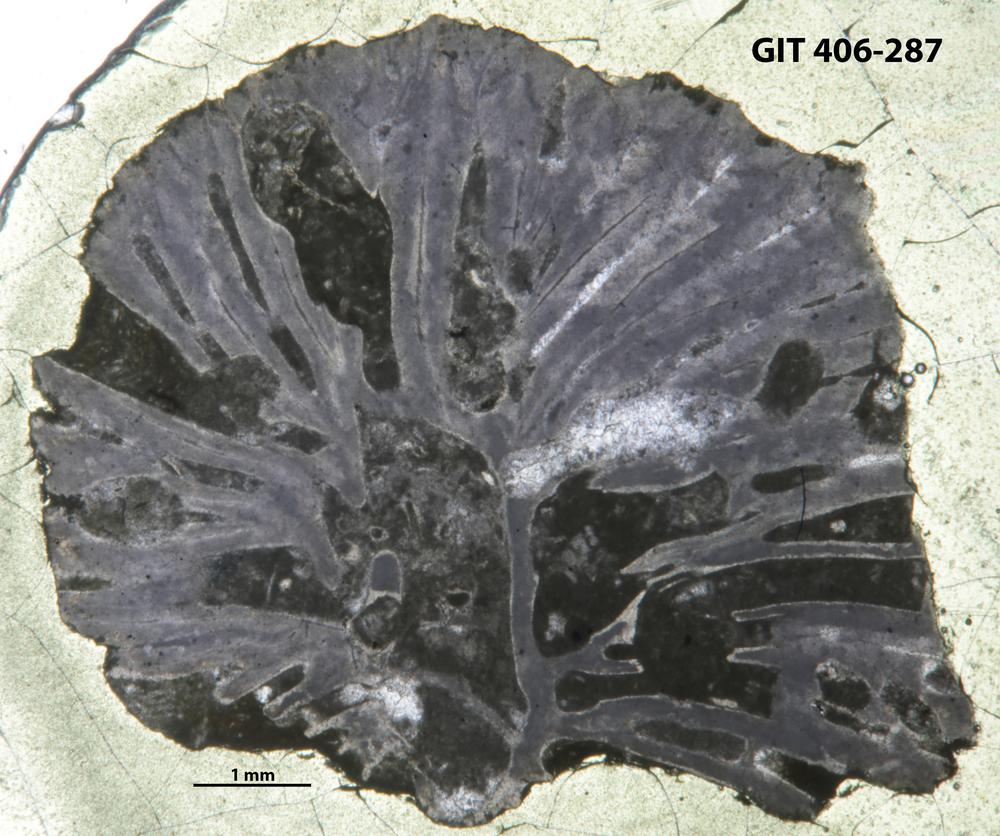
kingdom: Animalia
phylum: Cnidaria
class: Anthozoa
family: Streptelasmatidae
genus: Grewingkia
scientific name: Grewingkia Streptelasma europaeum
